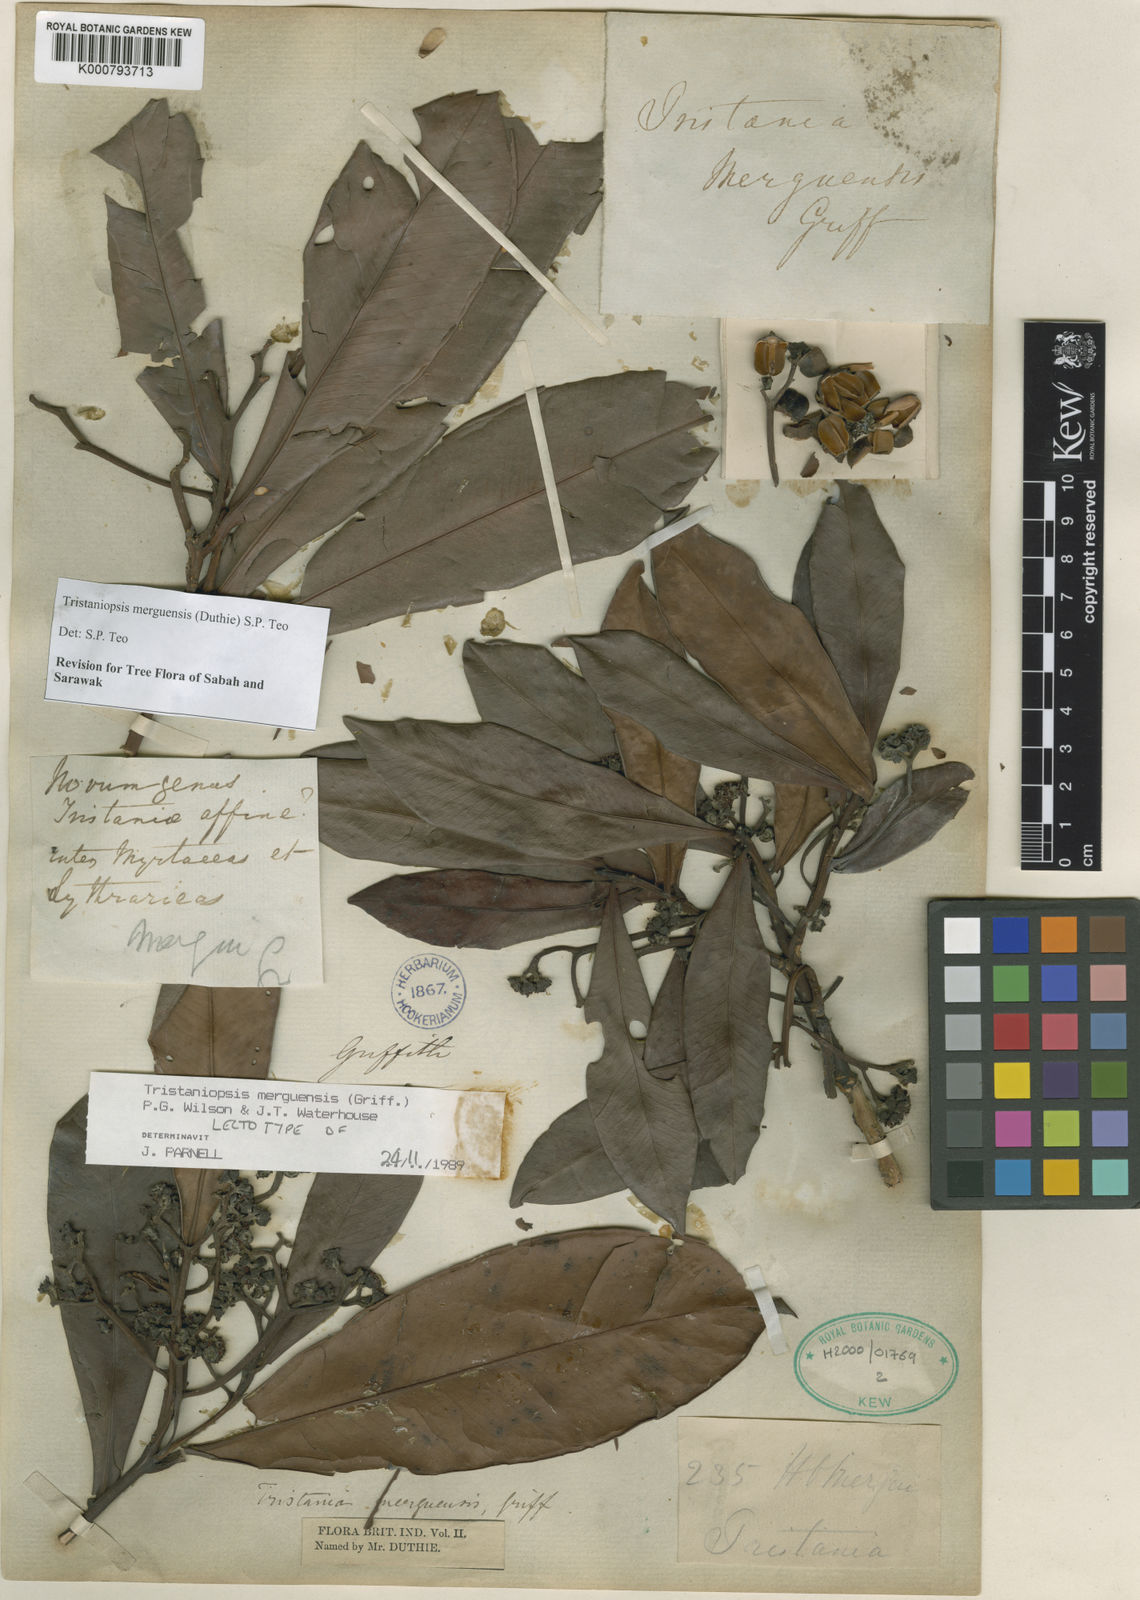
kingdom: Plantae
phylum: Tracheophyta
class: Magnoliopsida
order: Myrtales
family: Myrtaceae
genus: Tristaniopsis
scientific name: Tristaniopsis merguensis
